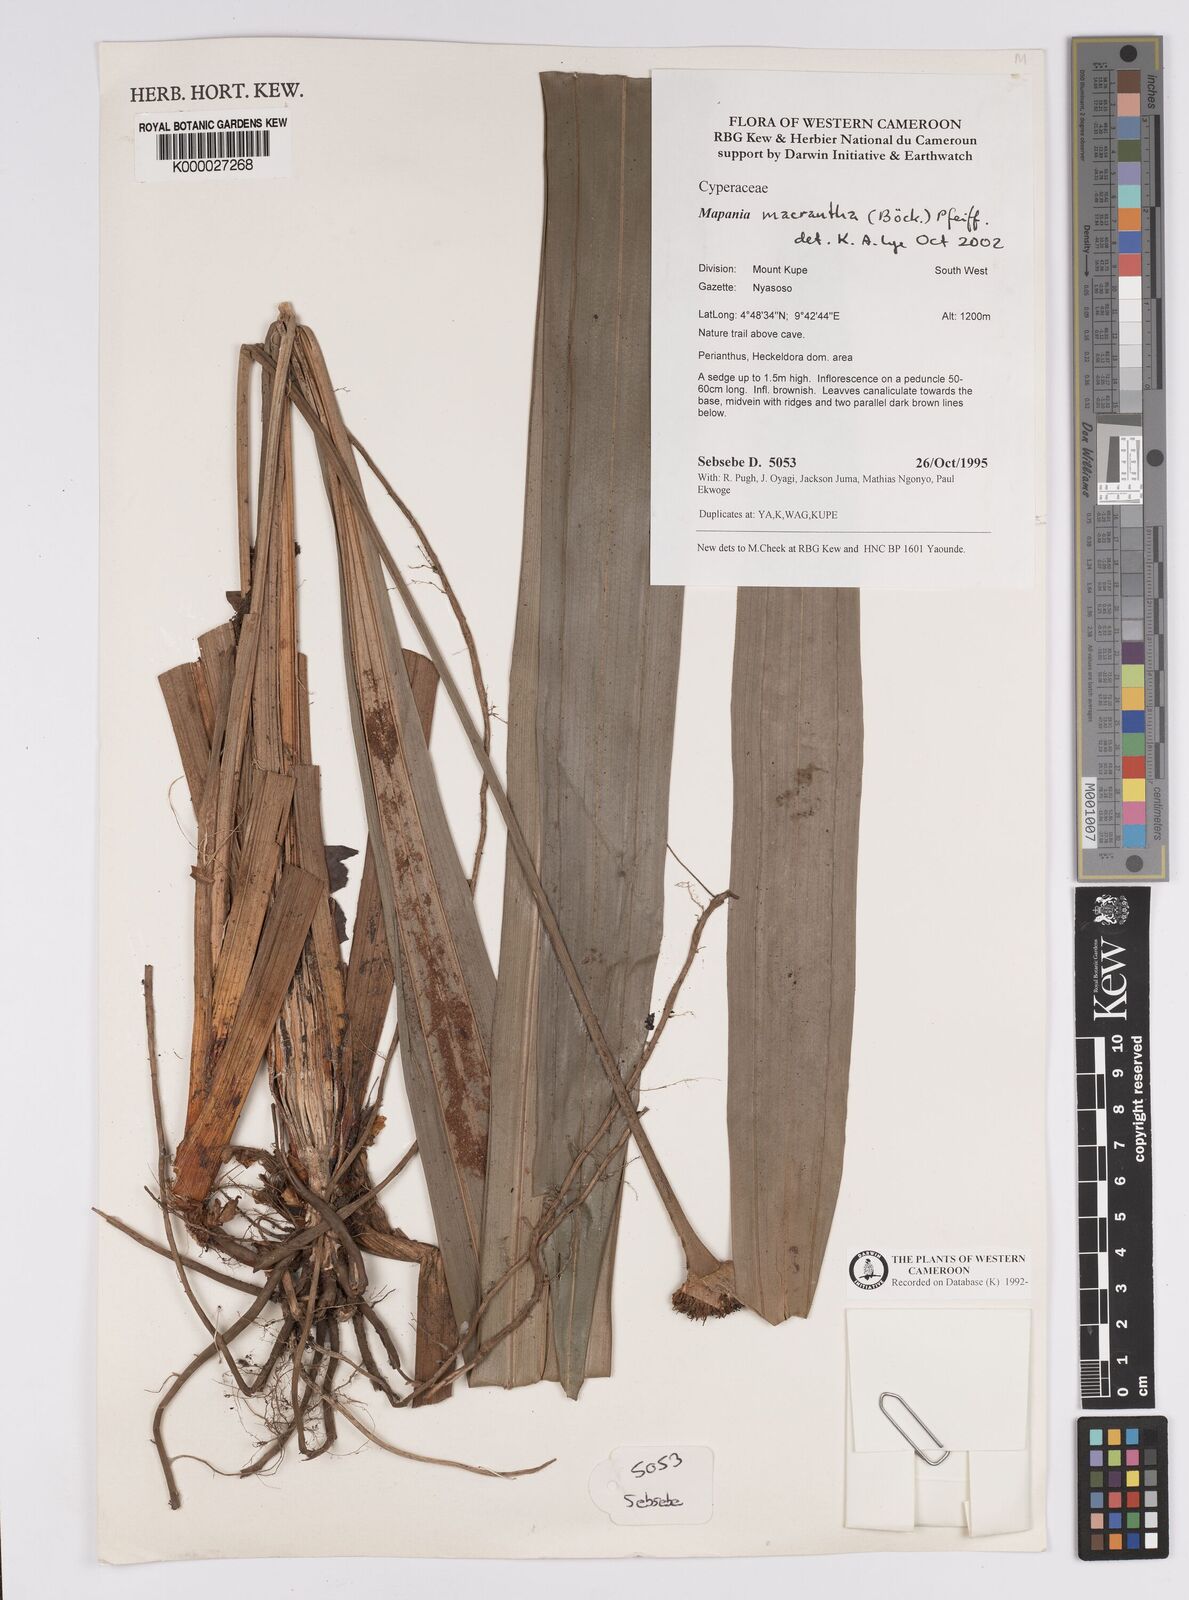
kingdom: Plantae
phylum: Tracheophyta
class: Liliopsida
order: Poales
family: Cyperaceae
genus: Mapania
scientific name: Mapania macrantha
